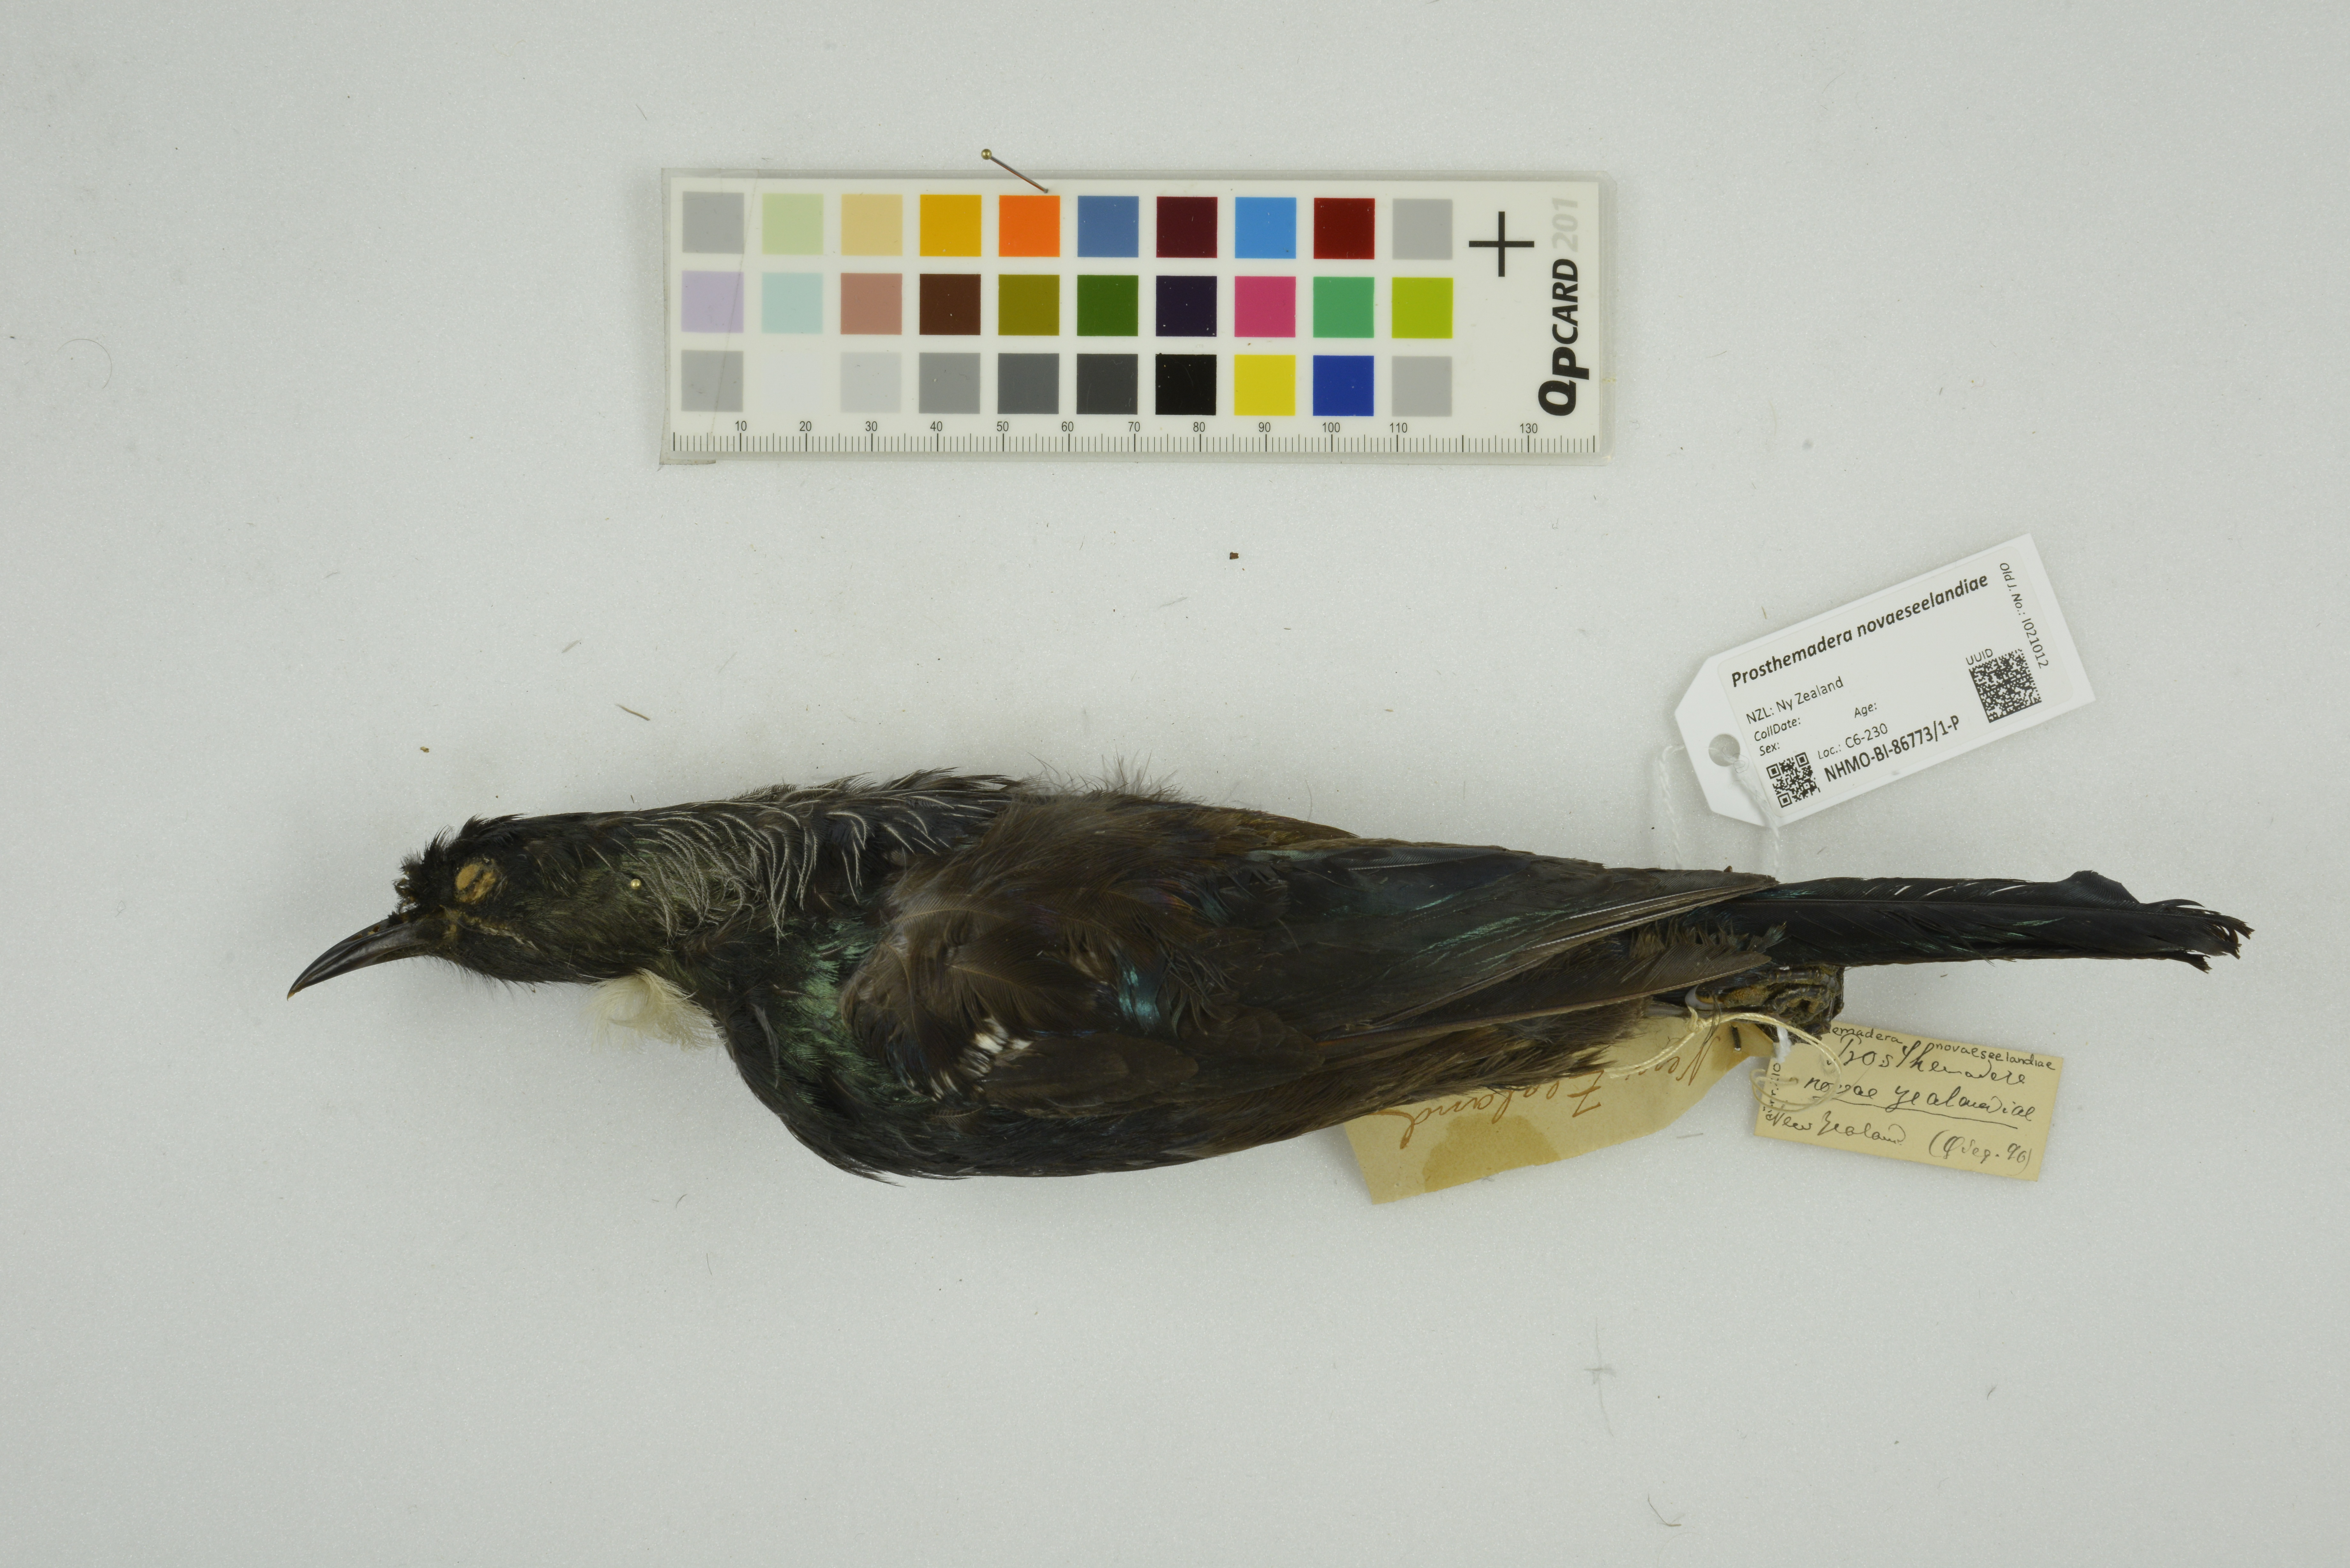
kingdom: Animalia
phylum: Chordata
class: Aves
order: Passeriformes
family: Meliphagidae
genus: Prosthemadera
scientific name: Prosthemadera novaeseelandiae
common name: Tui
